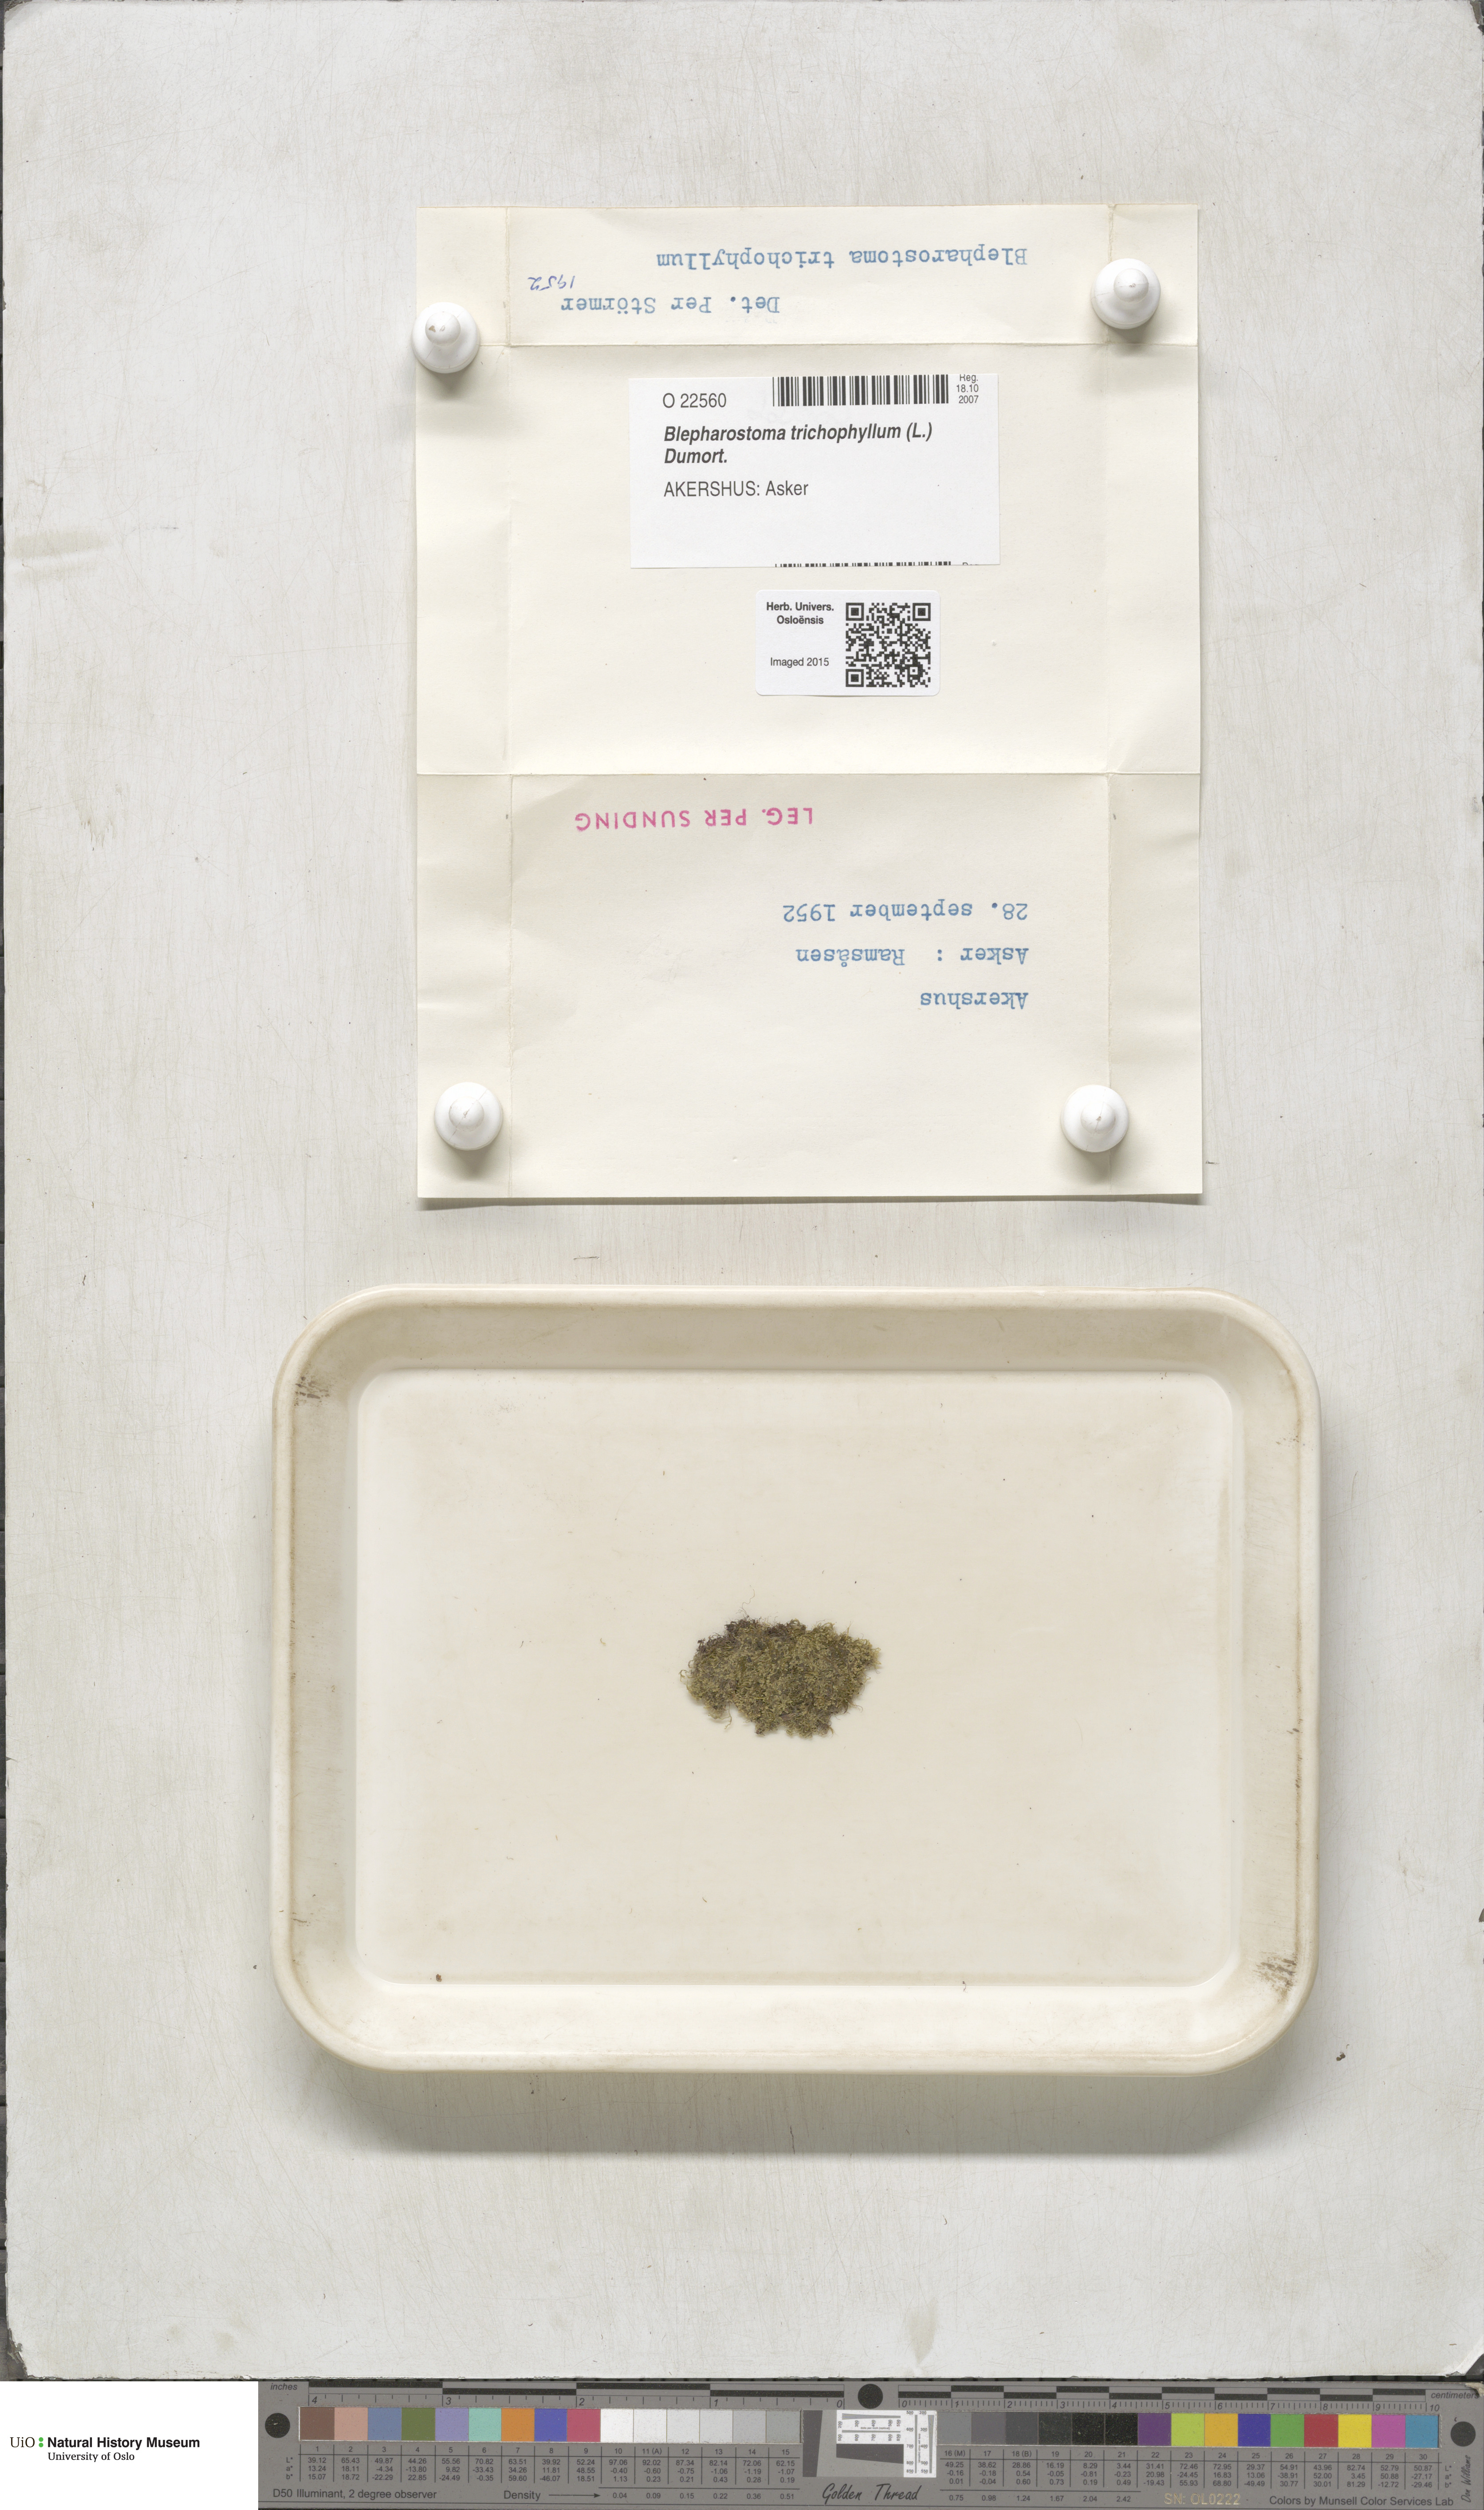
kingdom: Plantae
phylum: Marchantiophyta
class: Jungermanniopsida
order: Jungermanniales
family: Blepharostomataceae
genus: Blepharostoma
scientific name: Blepharostoma trichophyllum
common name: Hairy threadwort
